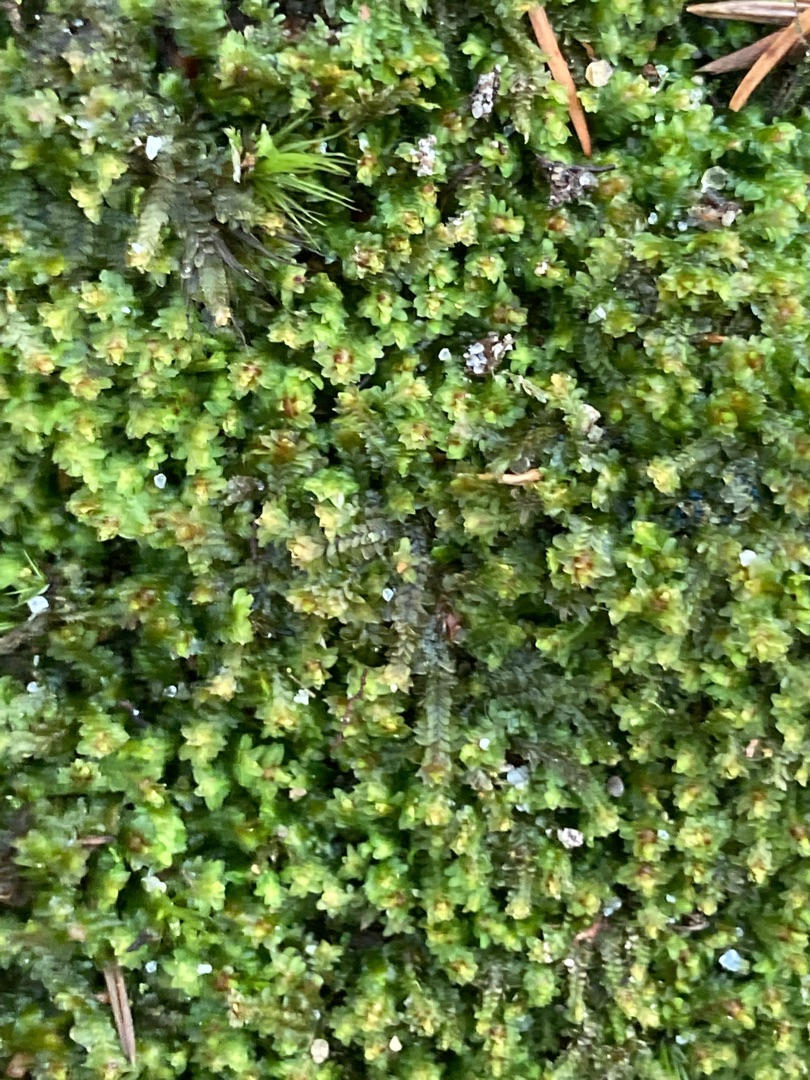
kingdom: Plantae
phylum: Marchantiophyta
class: Jungermanniopsida
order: Jungermanniales
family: Scapaniaceae
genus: Diplophyllum
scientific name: Diplophyllum albicans
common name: Stribet dobbeltblad
